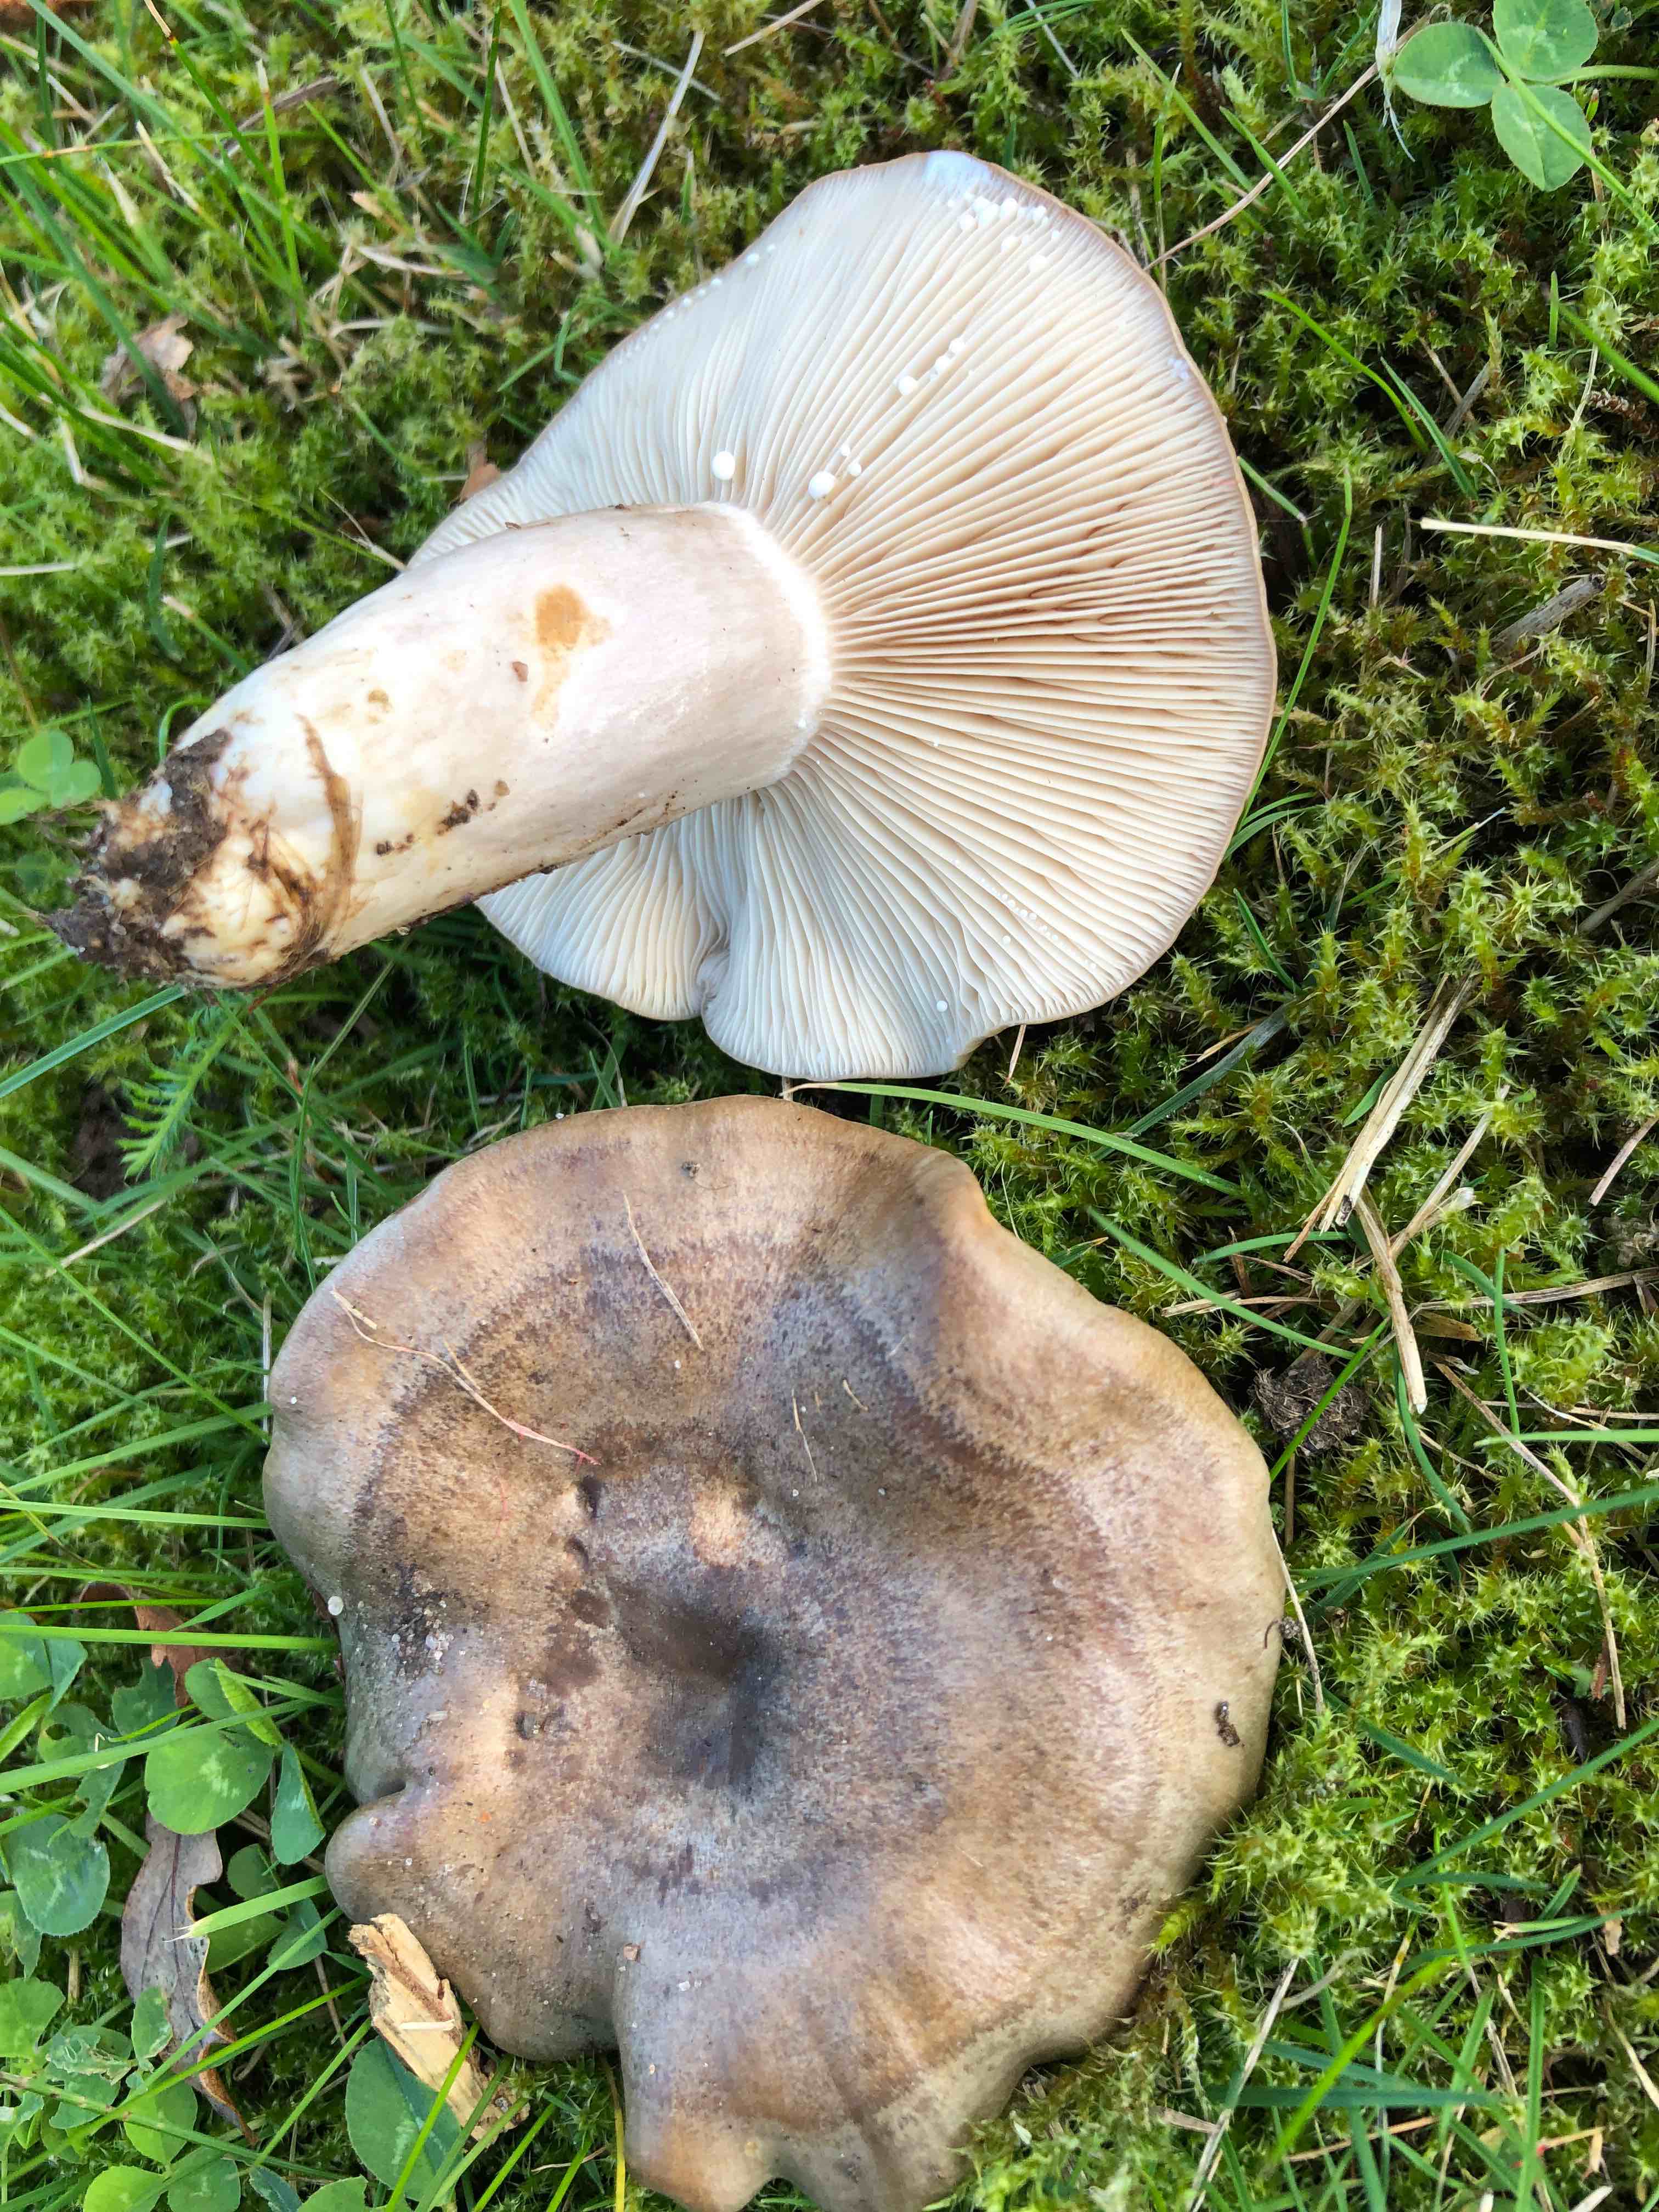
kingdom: Fungi
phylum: Basidiomycota
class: Agaricomycetes
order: Russulales
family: Russulaceae
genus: Lactarius
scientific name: Lactarius circellatus
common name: avnbøg-mælkehat
